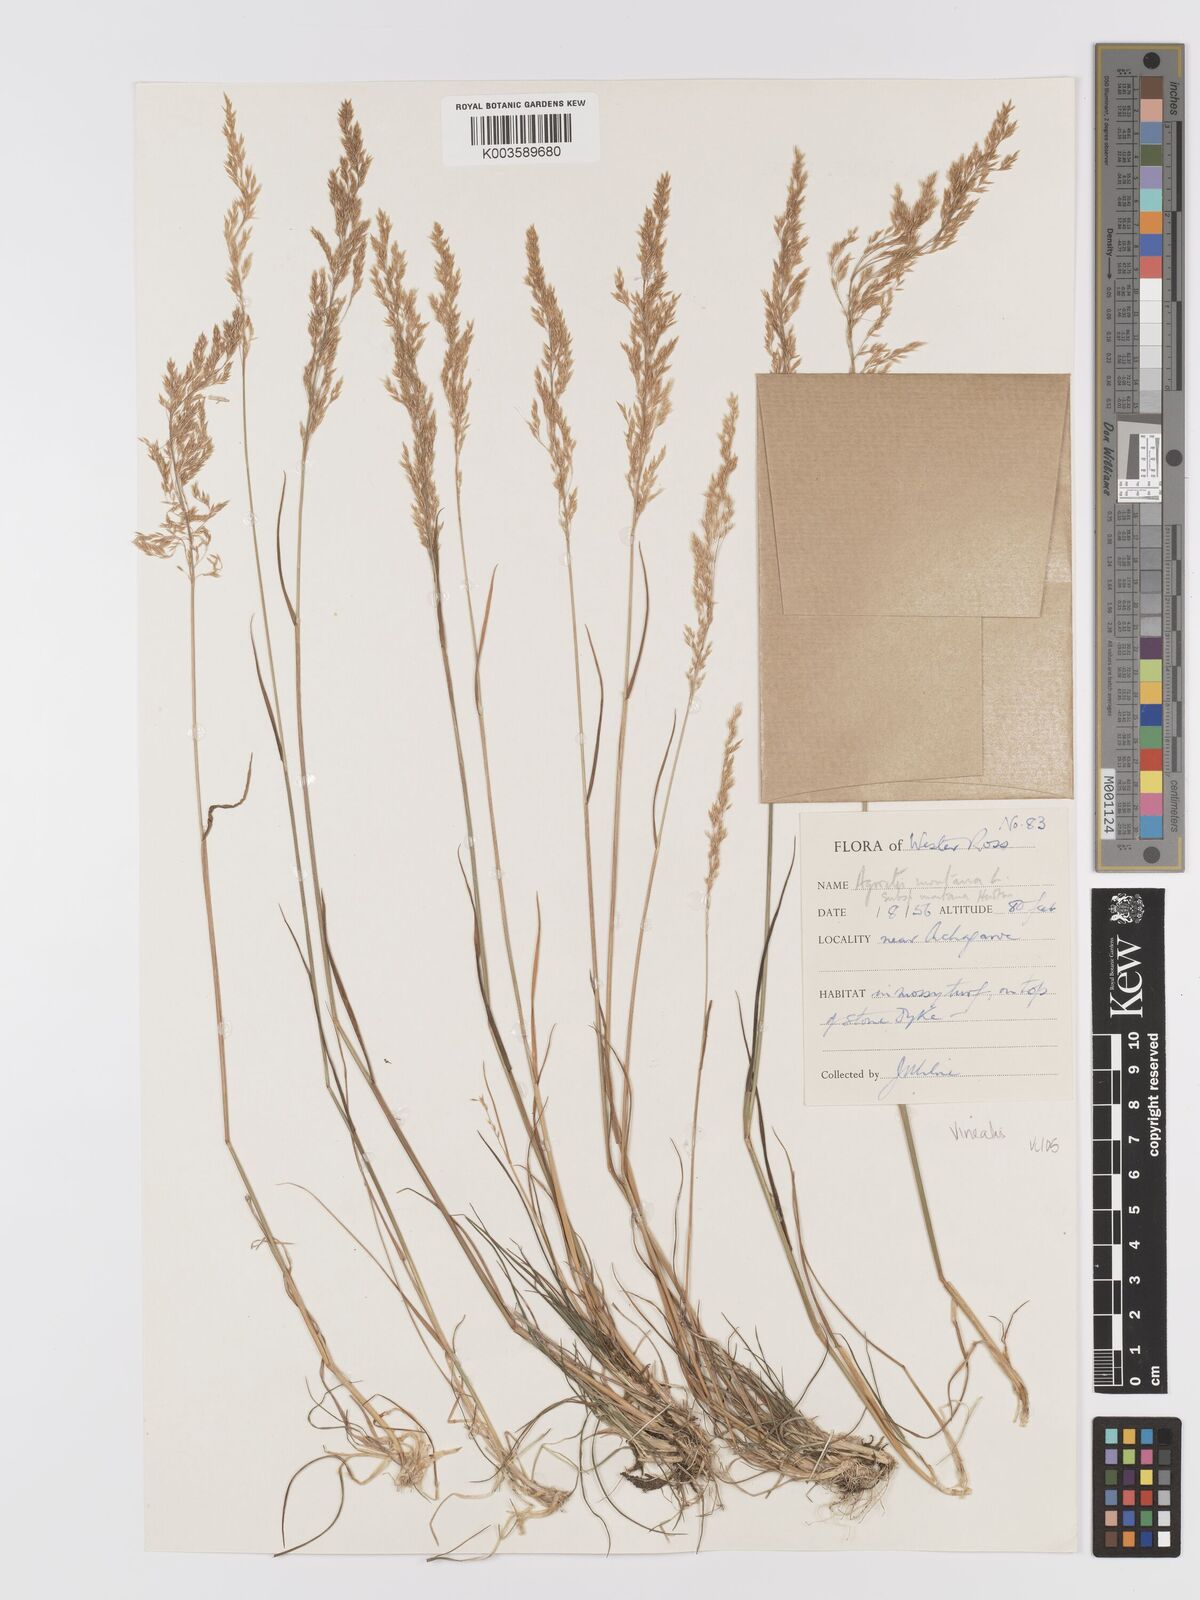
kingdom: Plantae
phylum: Tracheophyta
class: Liliopsida
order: Poales
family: Poaceae
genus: Agrostis
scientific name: Agrostis
